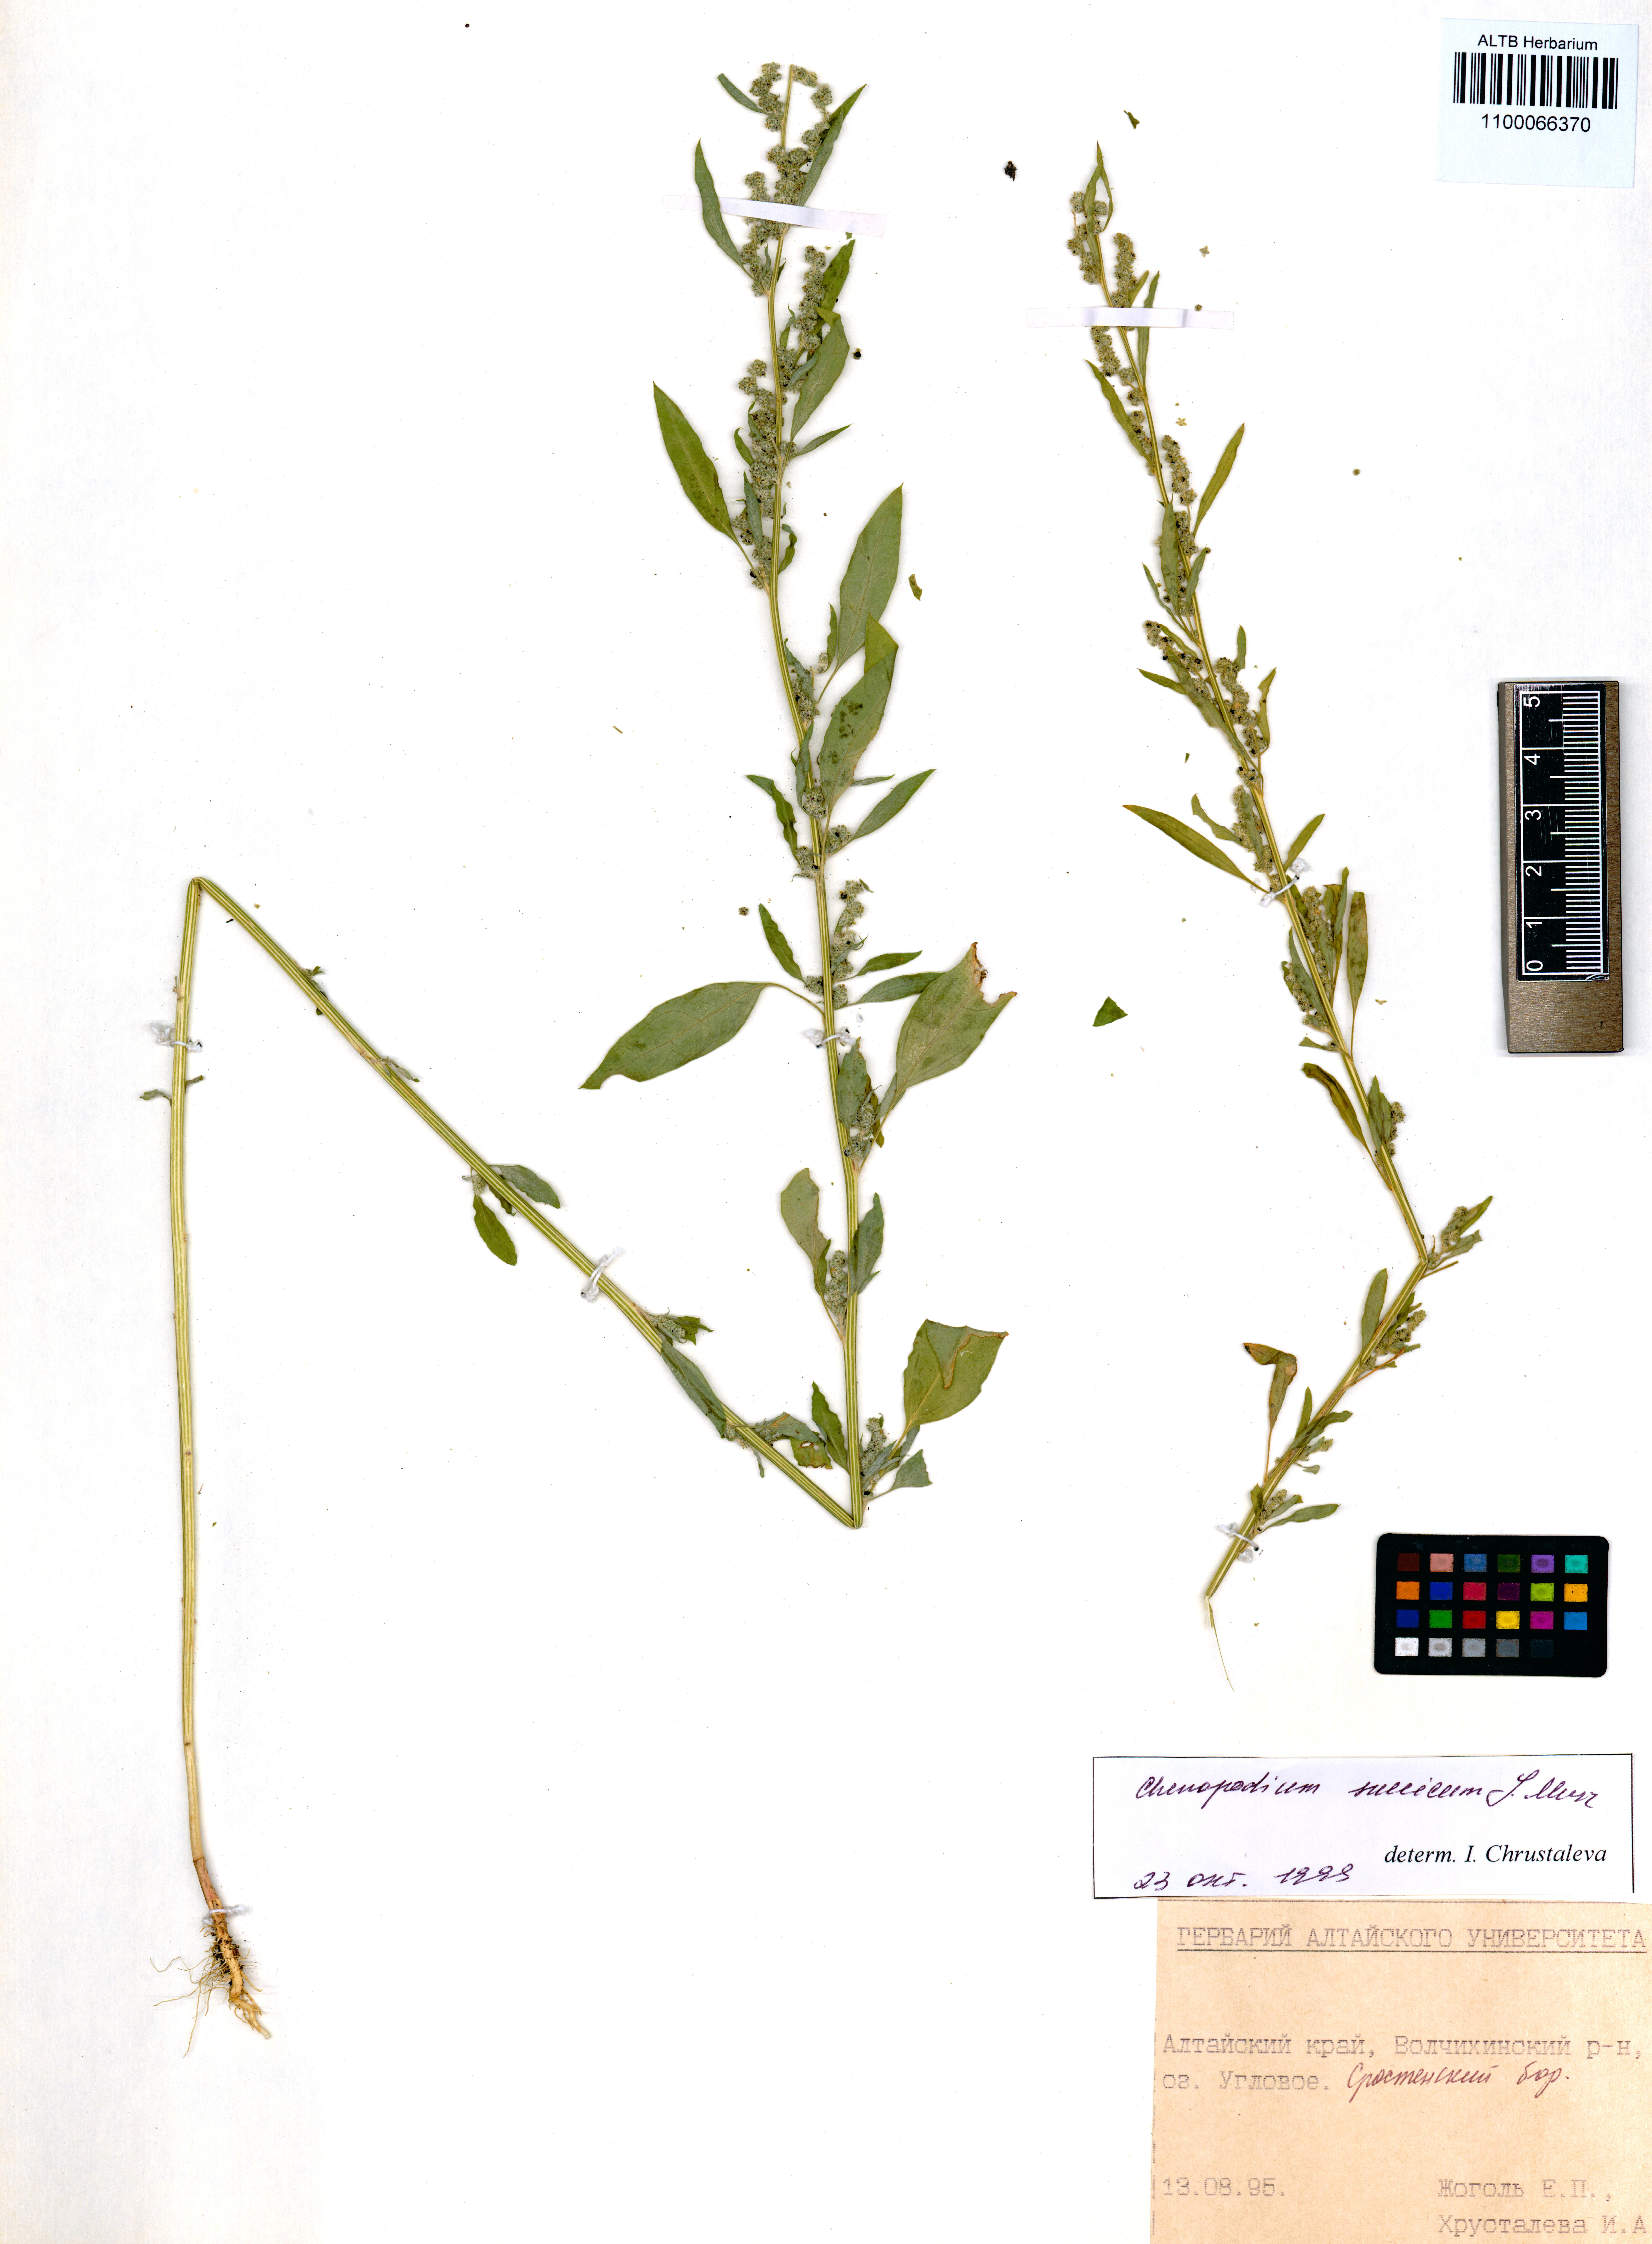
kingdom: Plantae
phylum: Tracheophyta
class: Magnoliopsida
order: Caryophyllales
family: Amaranthaceae
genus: Chenopodium
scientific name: Chenopodium suecicum
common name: Swedish goosefoot
